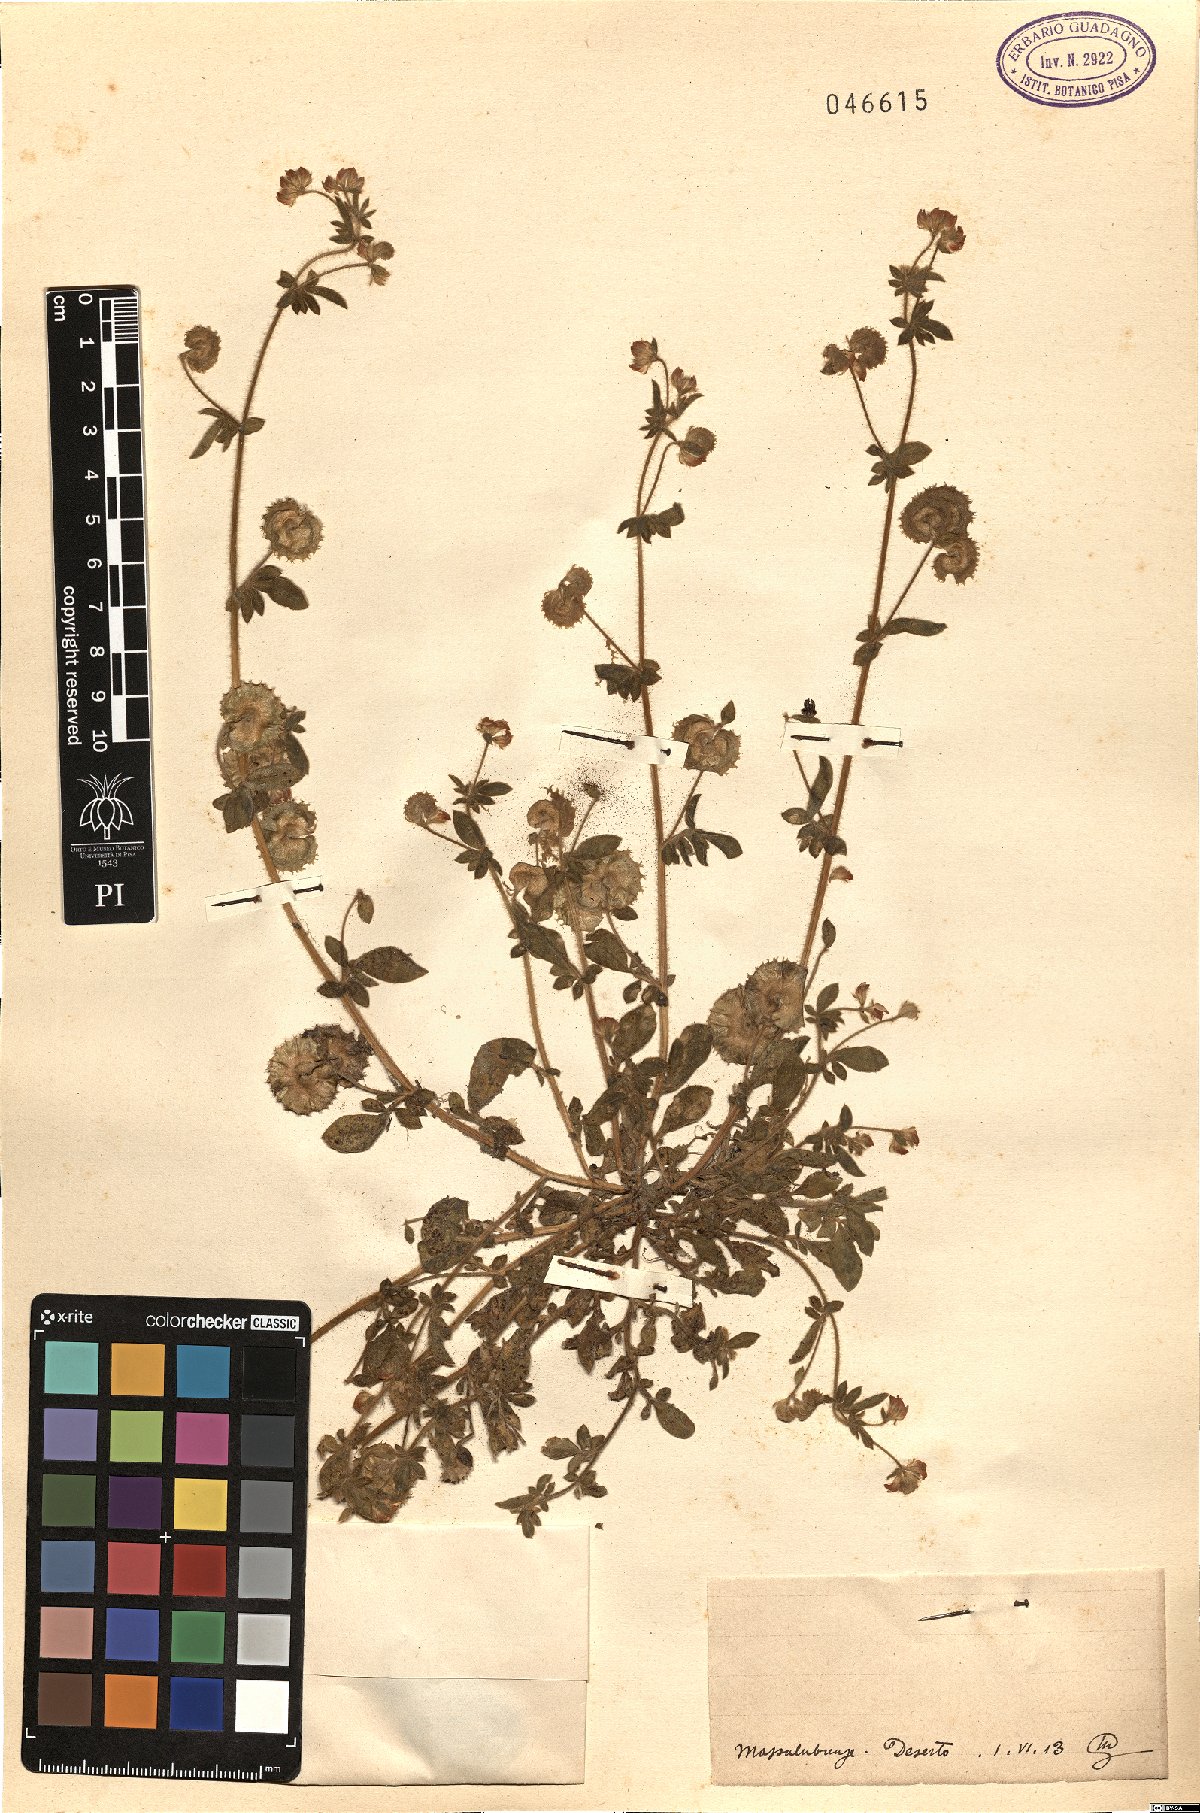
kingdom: Plantae
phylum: Tracheophyta
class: Magnoliopsida
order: Fabales
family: Fabaceae
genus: Anthyllis
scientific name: Anthyllis Hymenocarpos spec
